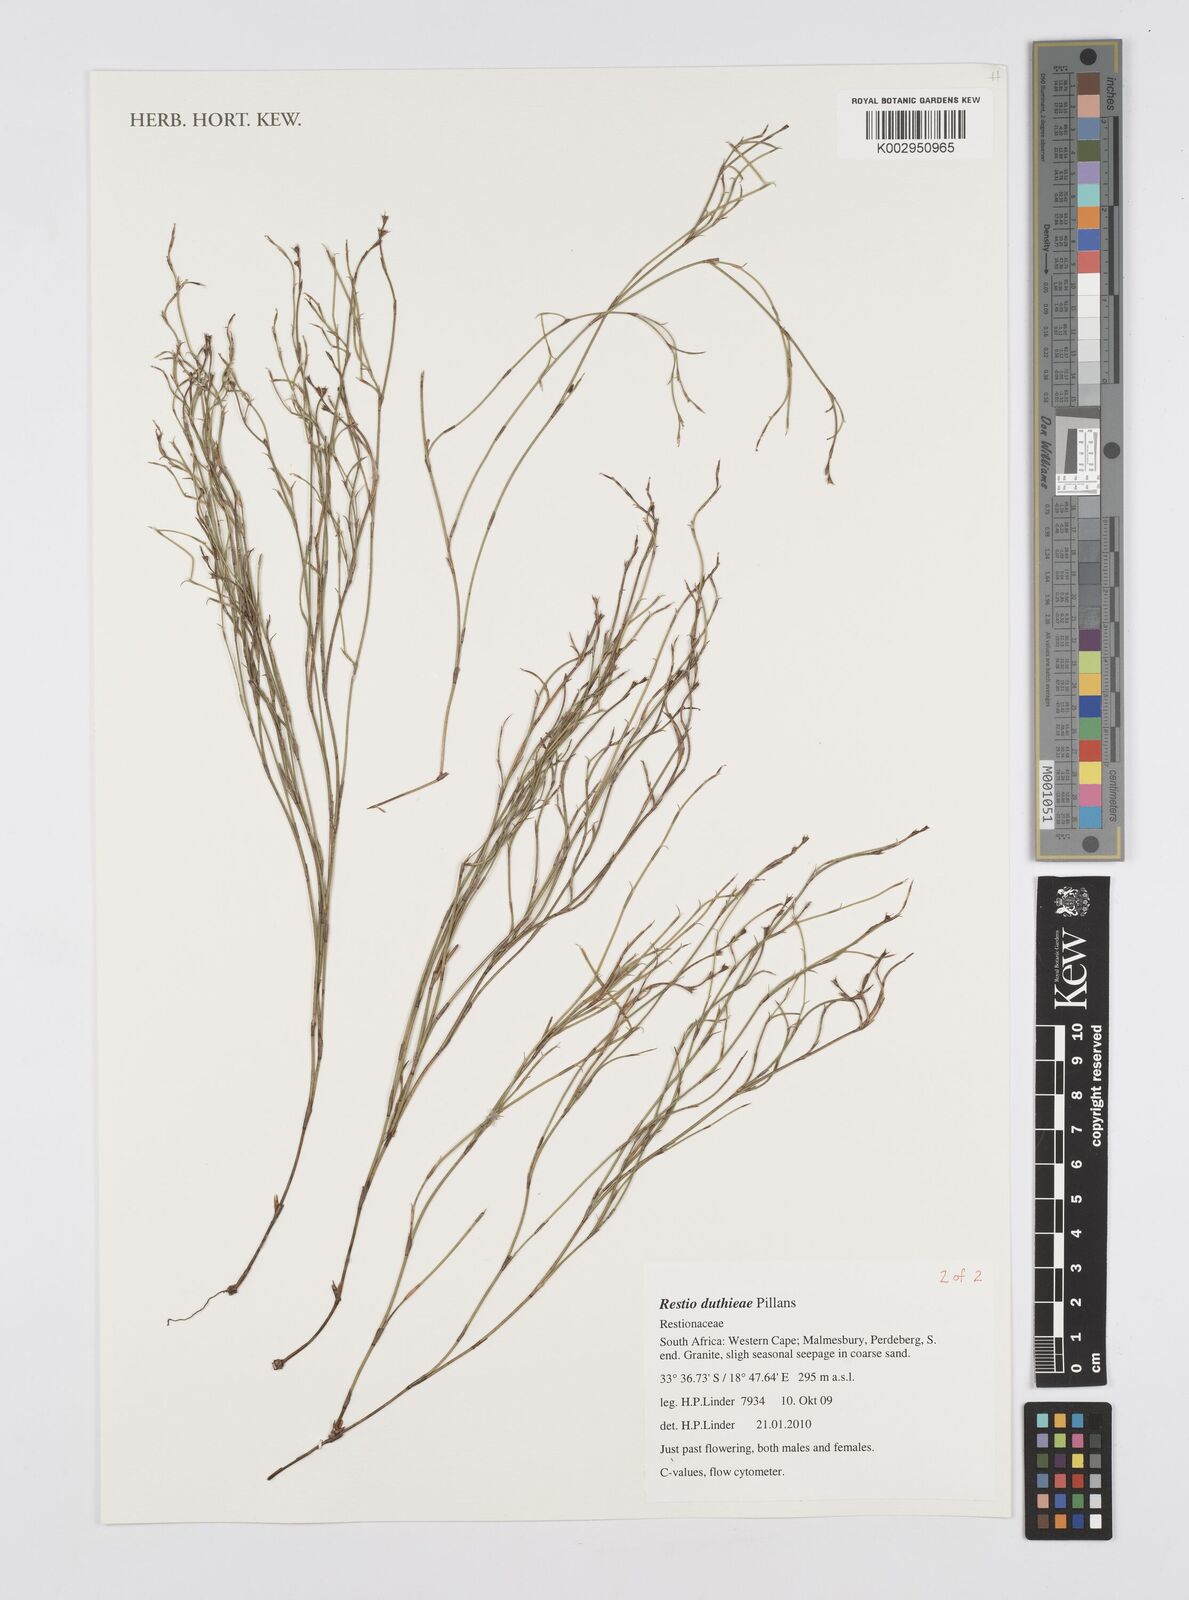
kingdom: Plantae
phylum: Tracheophyta
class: Liliopsida
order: Poales
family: Restionaceae
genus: Restio
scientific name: Restio duthieae
